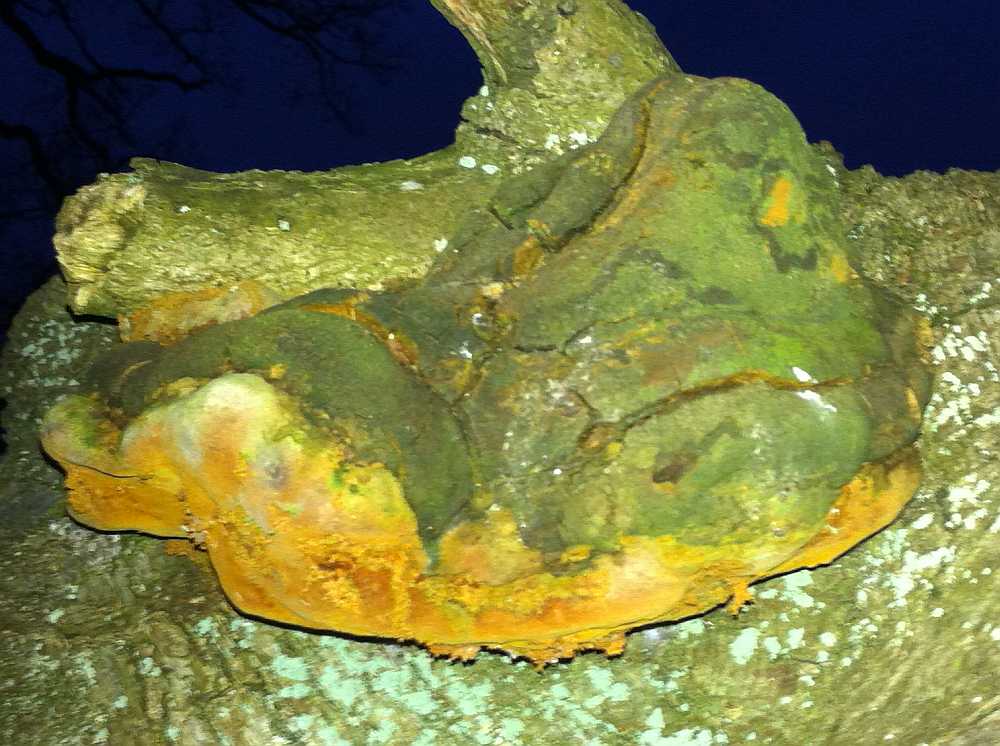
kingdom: Fungi
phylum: Basidiomycota
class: Agaricomycetes
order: Hymenochaetales
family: Hymenochaetaceae
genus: Fomitiporia
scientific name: Fomitiporia robusta
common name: ege-ildporesvamp
